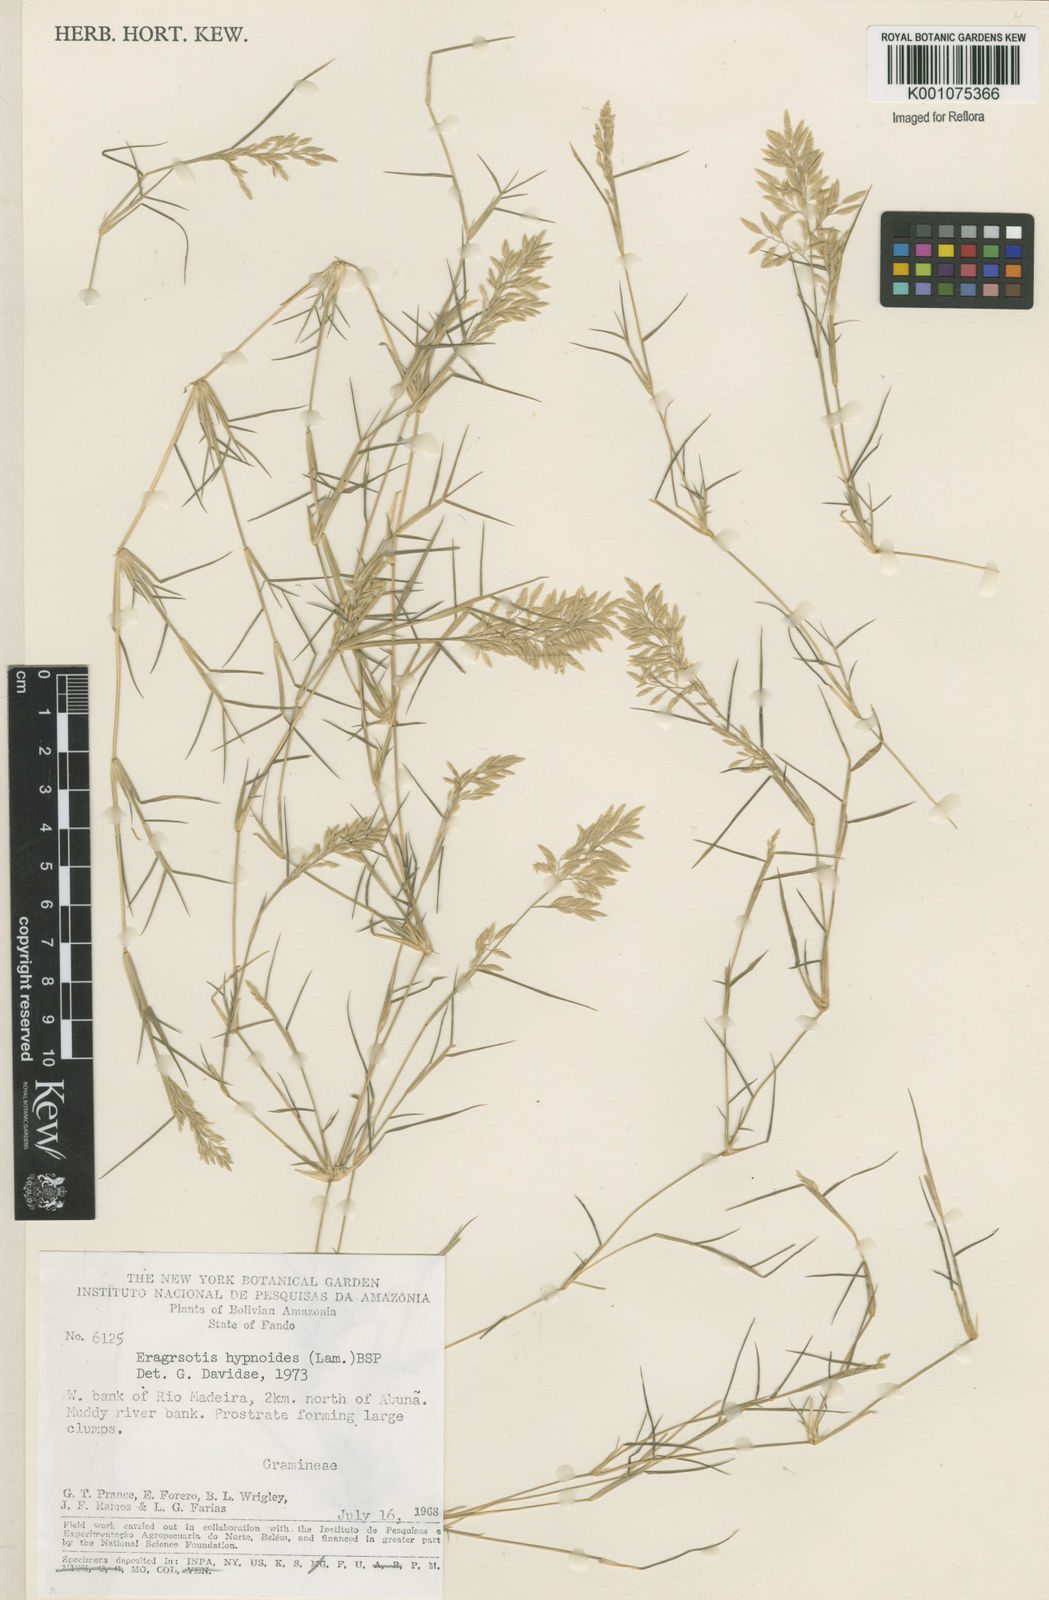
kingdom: Plantae
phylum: Tracheophyta
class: Liliopsida
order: Poales
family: Poaceae
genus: Eragrostis
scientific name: Eragrostis
